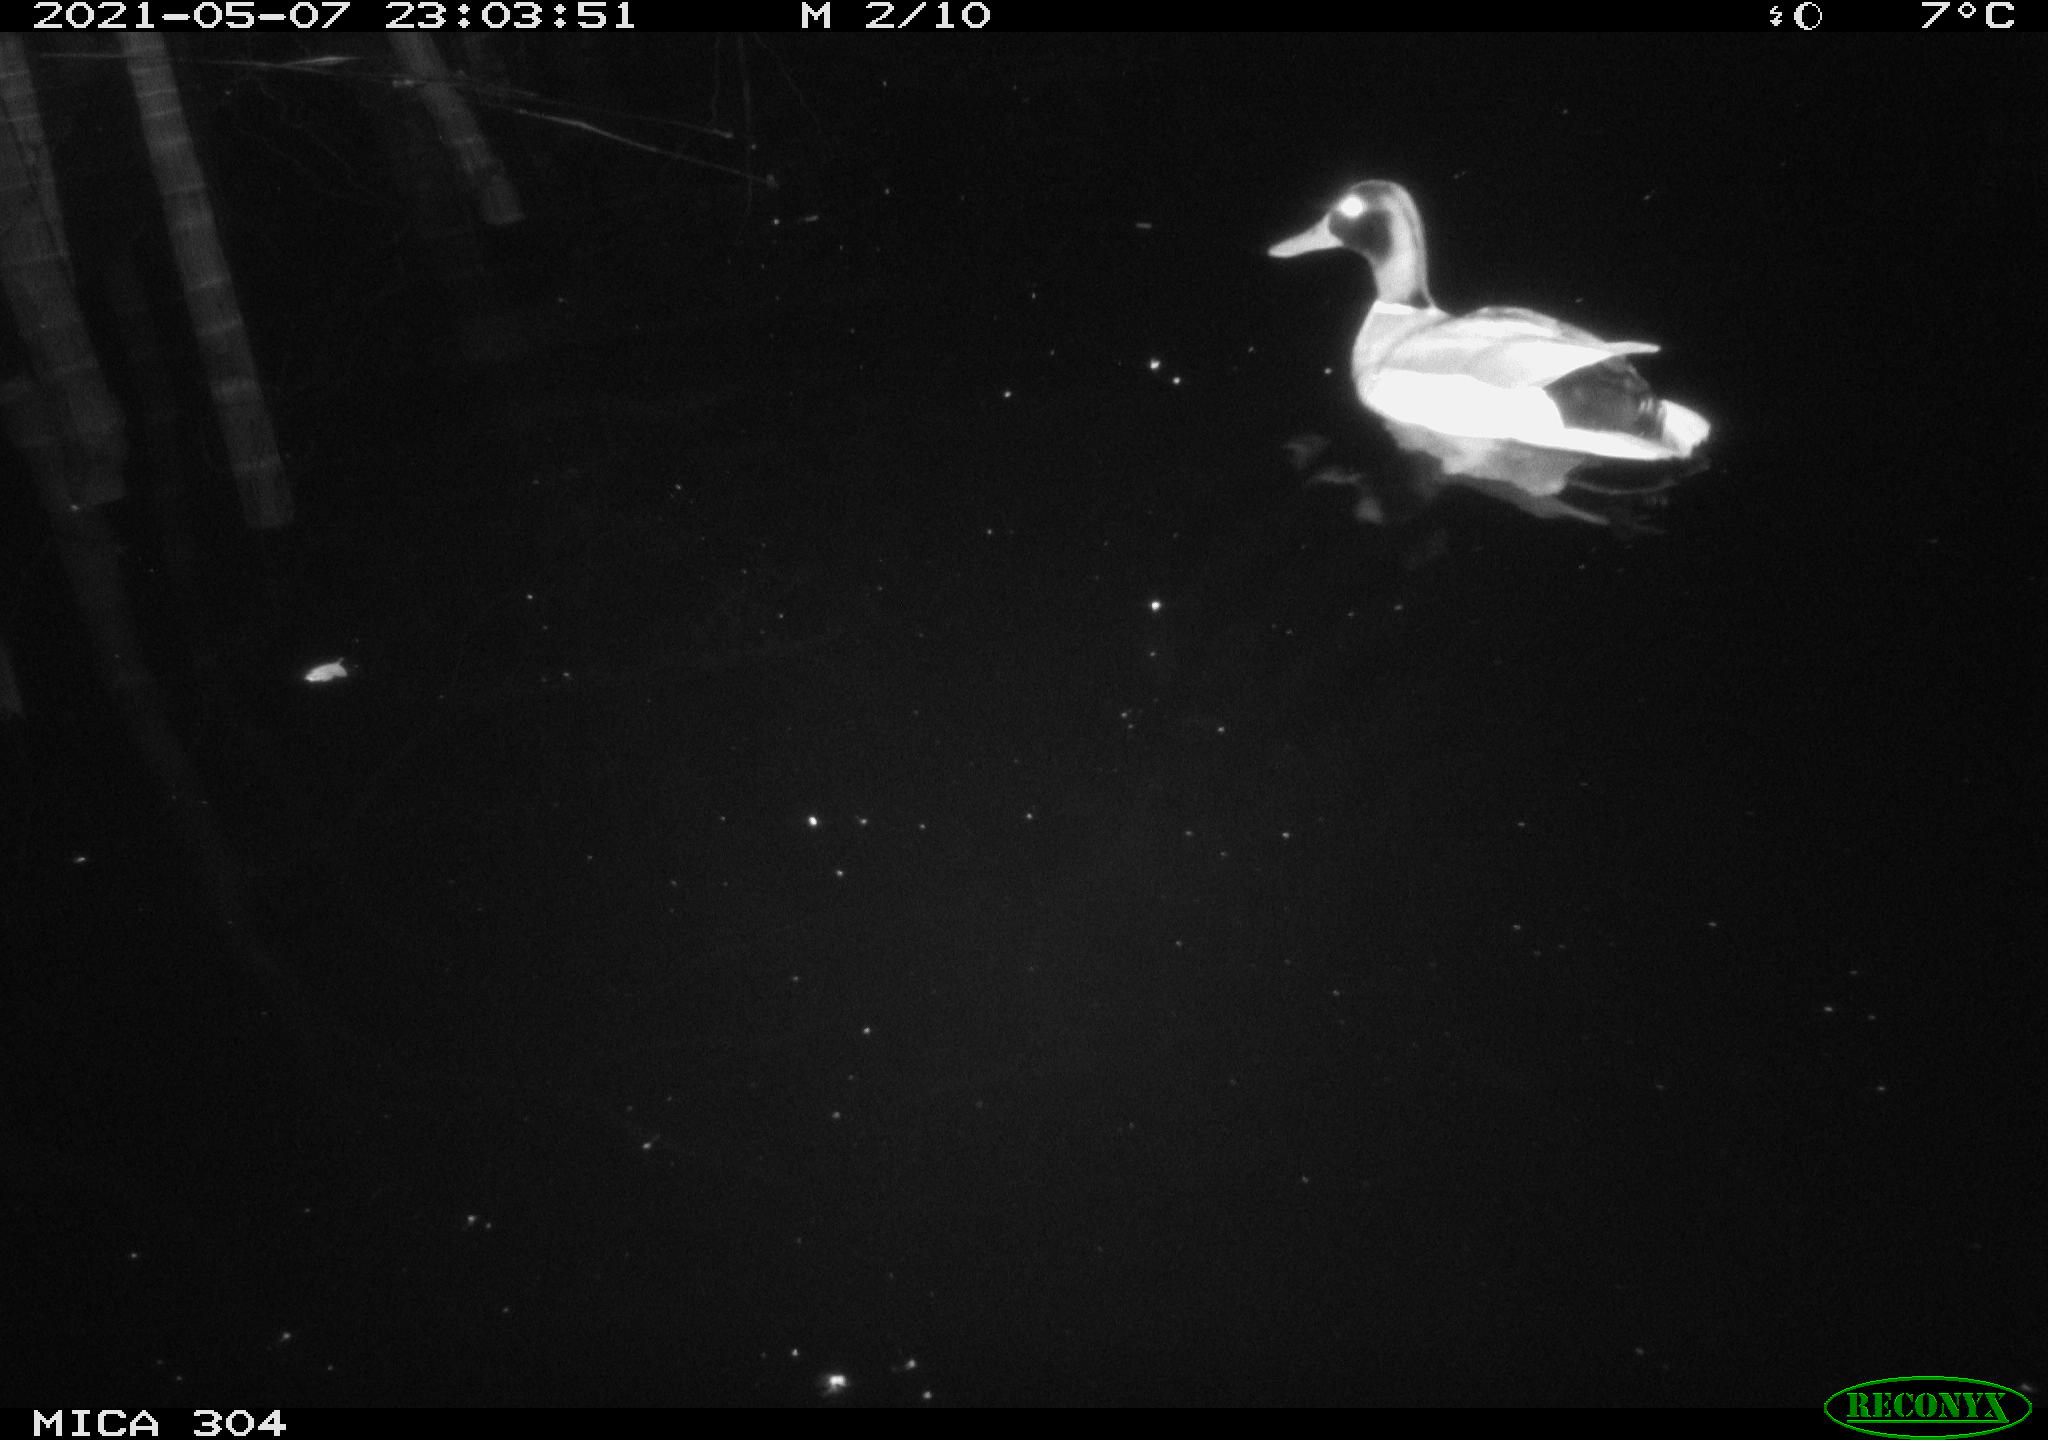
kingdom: Animalia
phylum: Chordata
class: Aves
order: Anseriformes
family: Anatidae
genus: Anas
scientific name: Anas platyrhynchos
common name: Mallard
